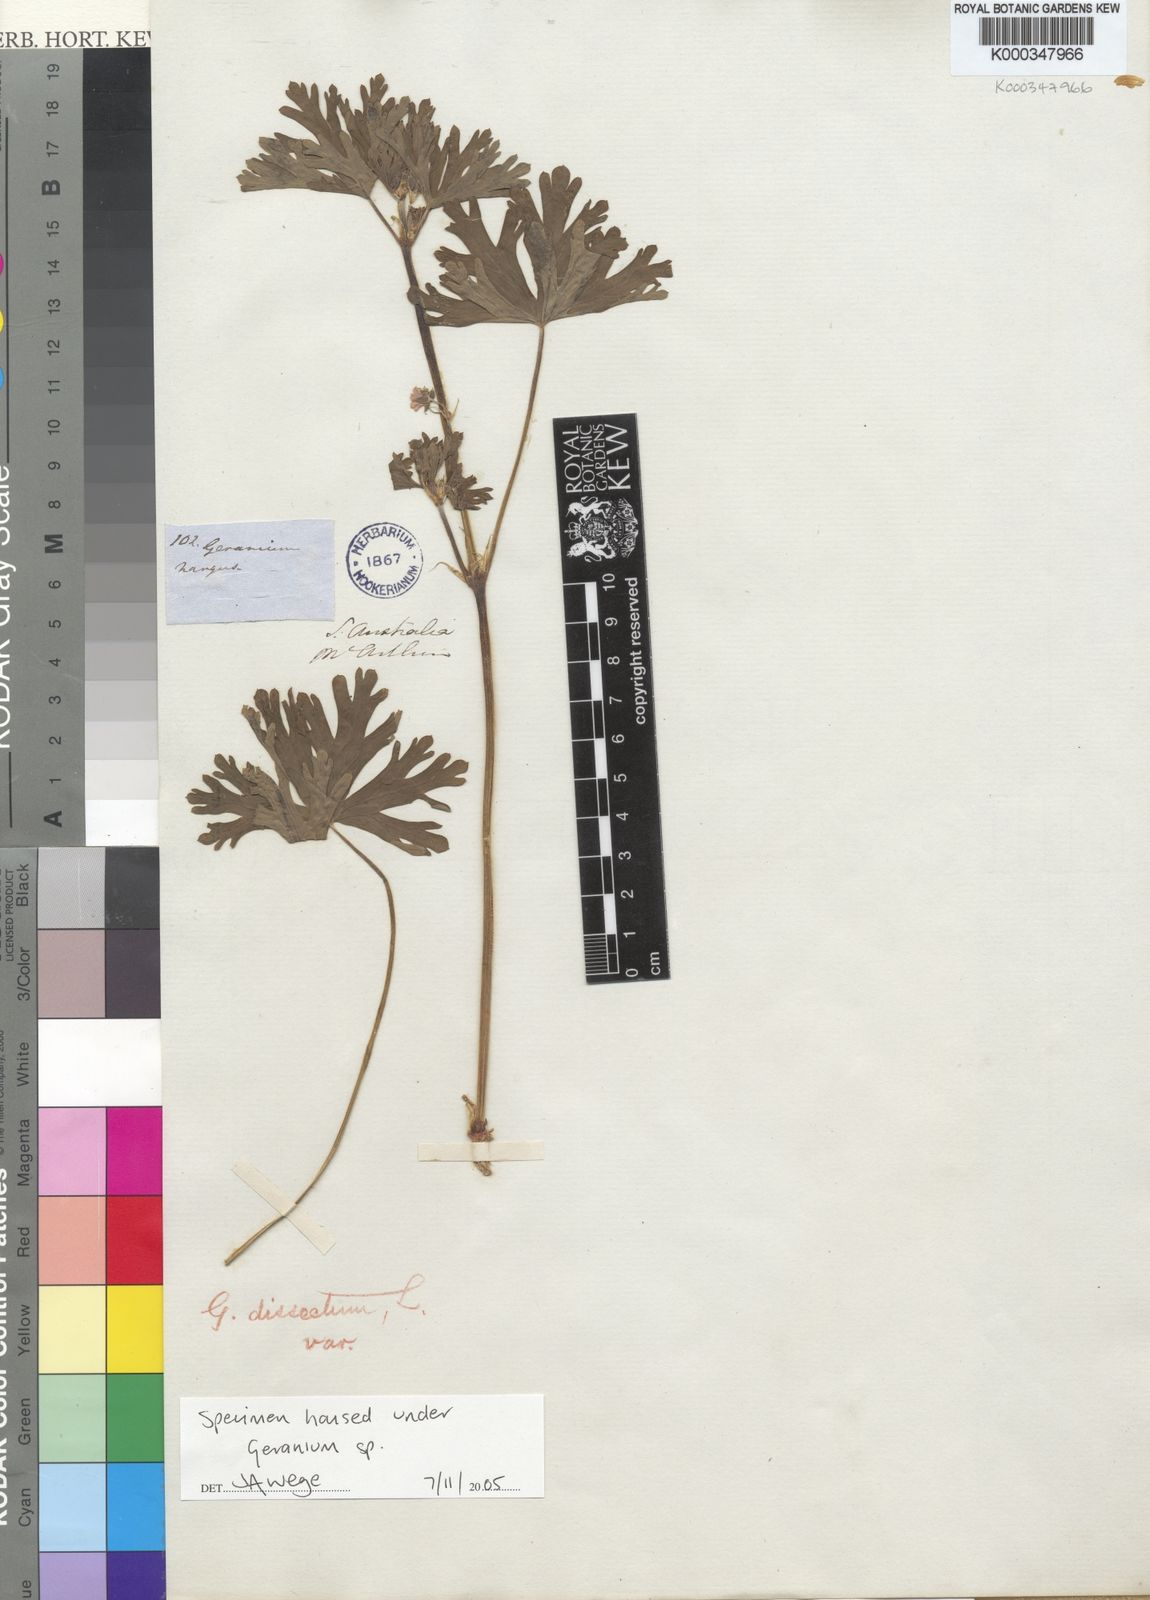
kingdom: Plantae
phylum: Tracheophyta
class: Magnoliopsida
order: Geraniales
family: Geraniaceae
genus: Geranium
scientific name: Geranium
